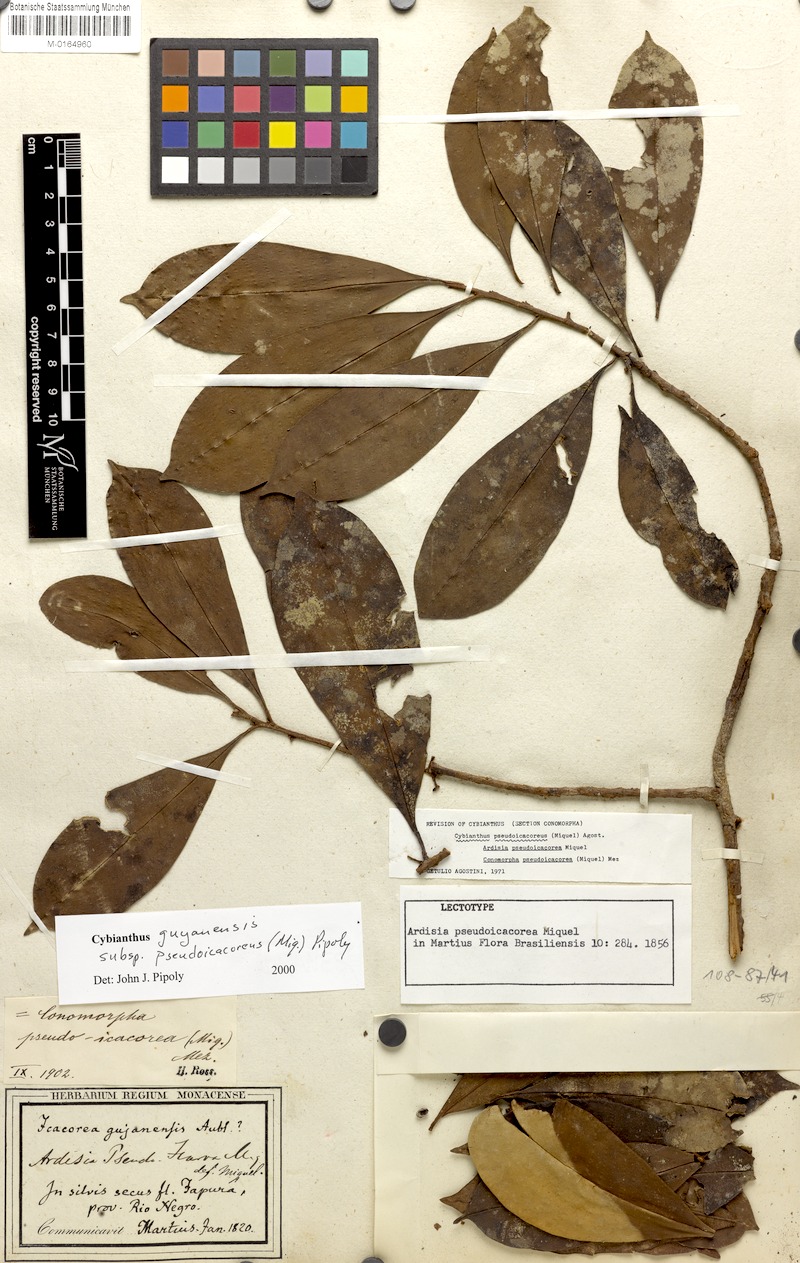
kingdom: Plantae
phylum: Tracheophyta
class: Magnoliopsida
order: Ericales
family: Primulaceae
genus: Cybianthus
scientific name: Cybianthus guyanensis
